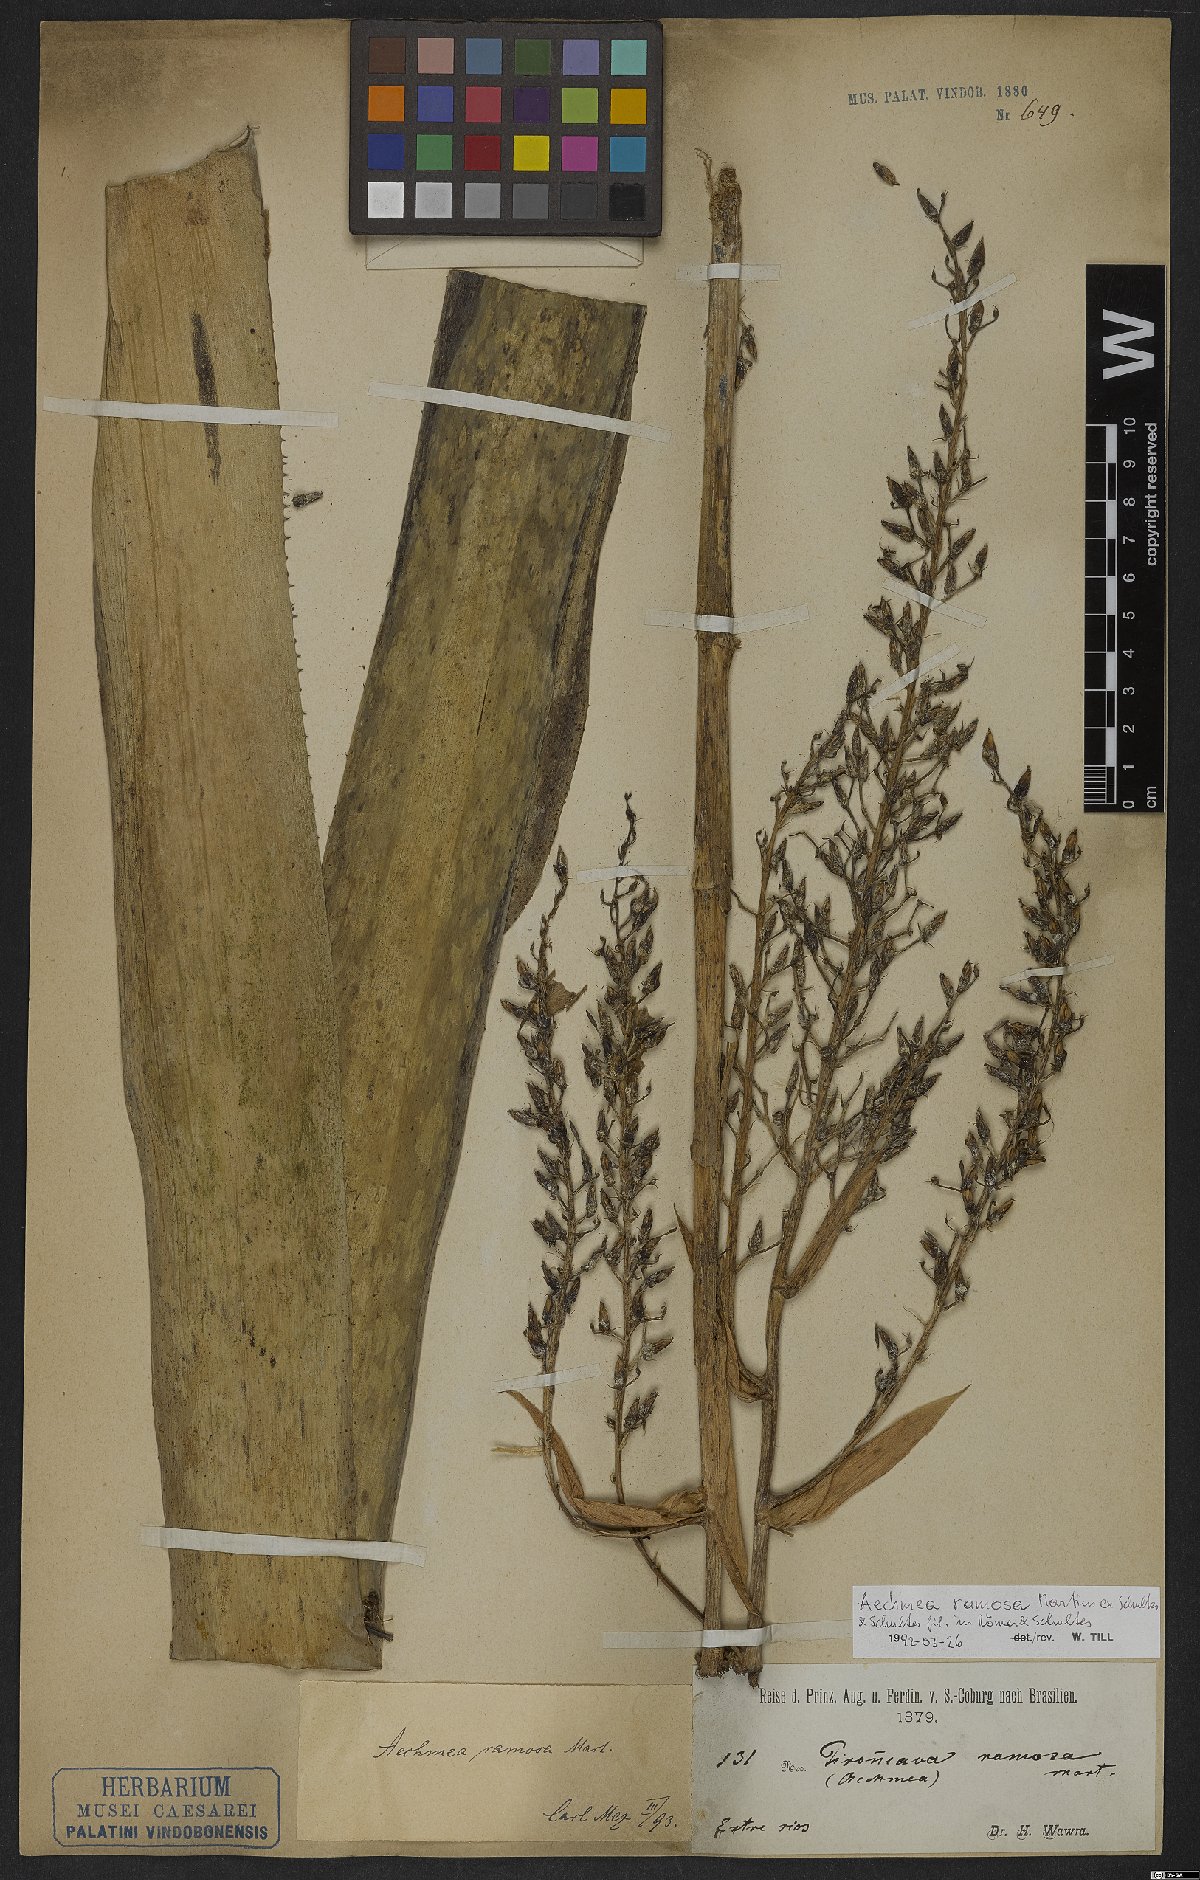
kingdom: Plantae
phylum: Tracheophyta
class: Liliopsida
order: Poales
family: Bromeliaceae
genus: Aechmea
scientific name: Aechmea ramosa
